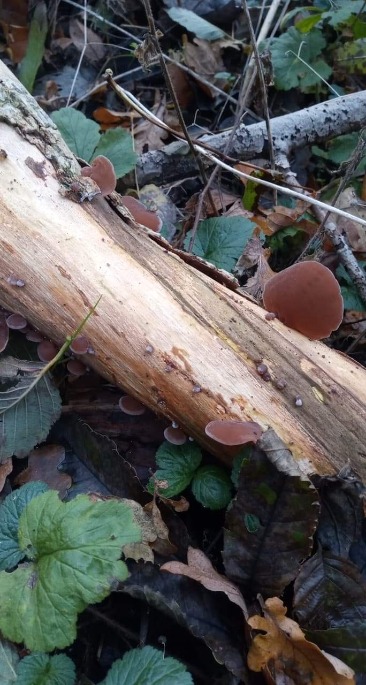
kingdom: Fungi
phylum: Basidiomycota
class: Agaricomycetes
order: Auriculariales
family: Auriculariaceae
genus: Auricularia
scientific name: Auricularia auricula-judae
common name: Almindelig judasøre
